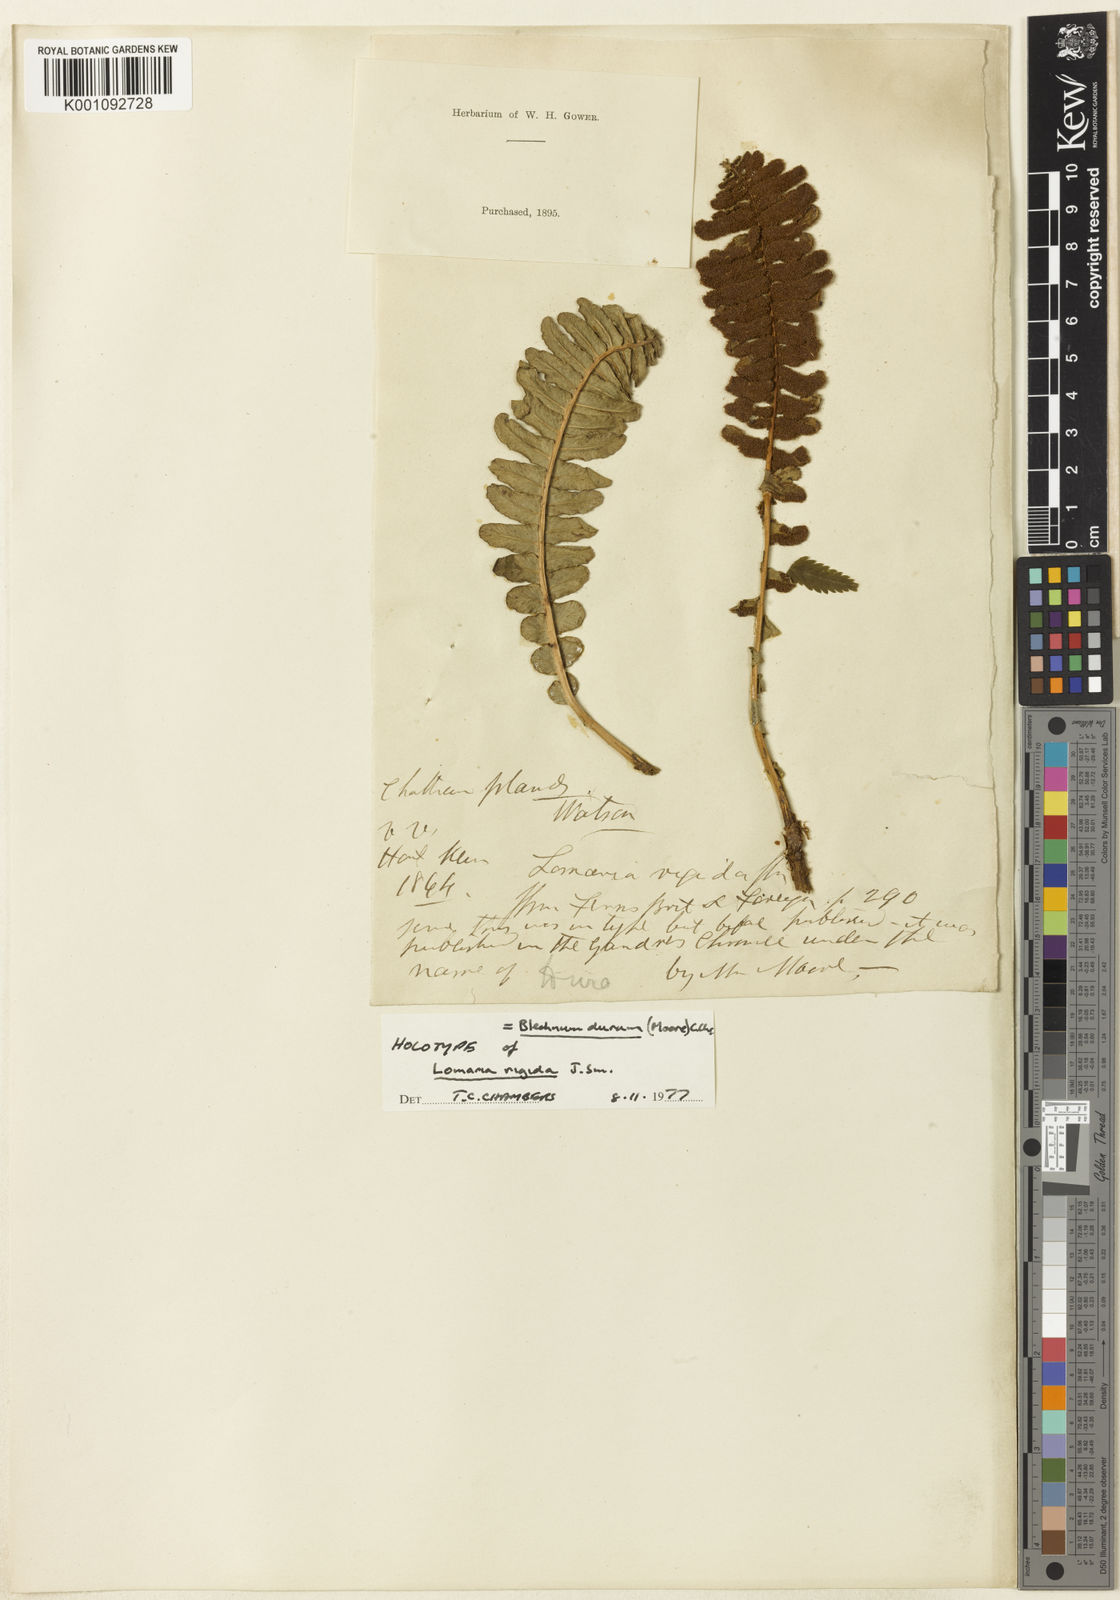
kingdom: Plantae
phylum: Tracheophyta
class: Polypodiopsida
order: Polypodiales
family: Blechnaceae
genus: Austroblechnum
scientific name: Austroblechnum durum
